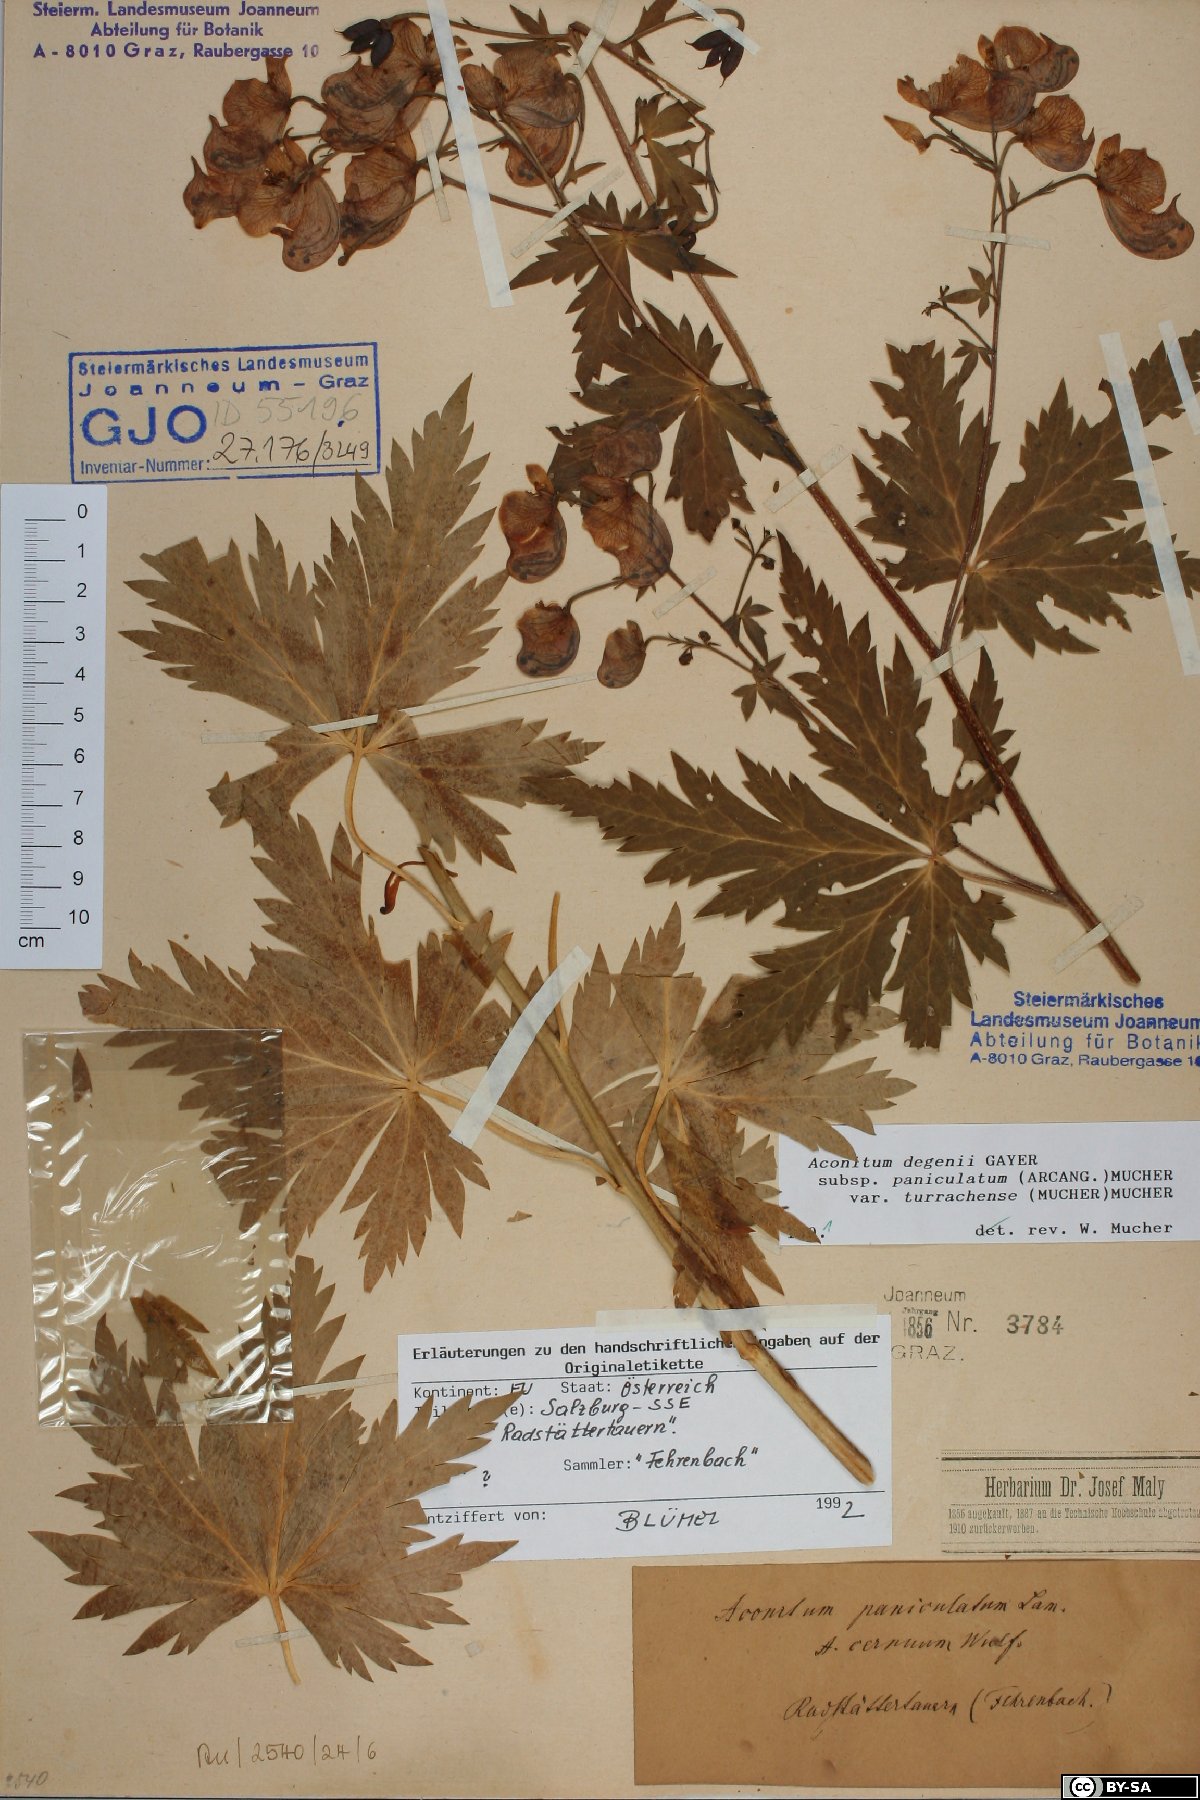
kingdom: Plantae
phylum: Tracheophyta
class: Magnoliopsida
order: Ranunculales
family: Ranunculaceae
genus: Aconitum
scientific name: Aconitum degenii
